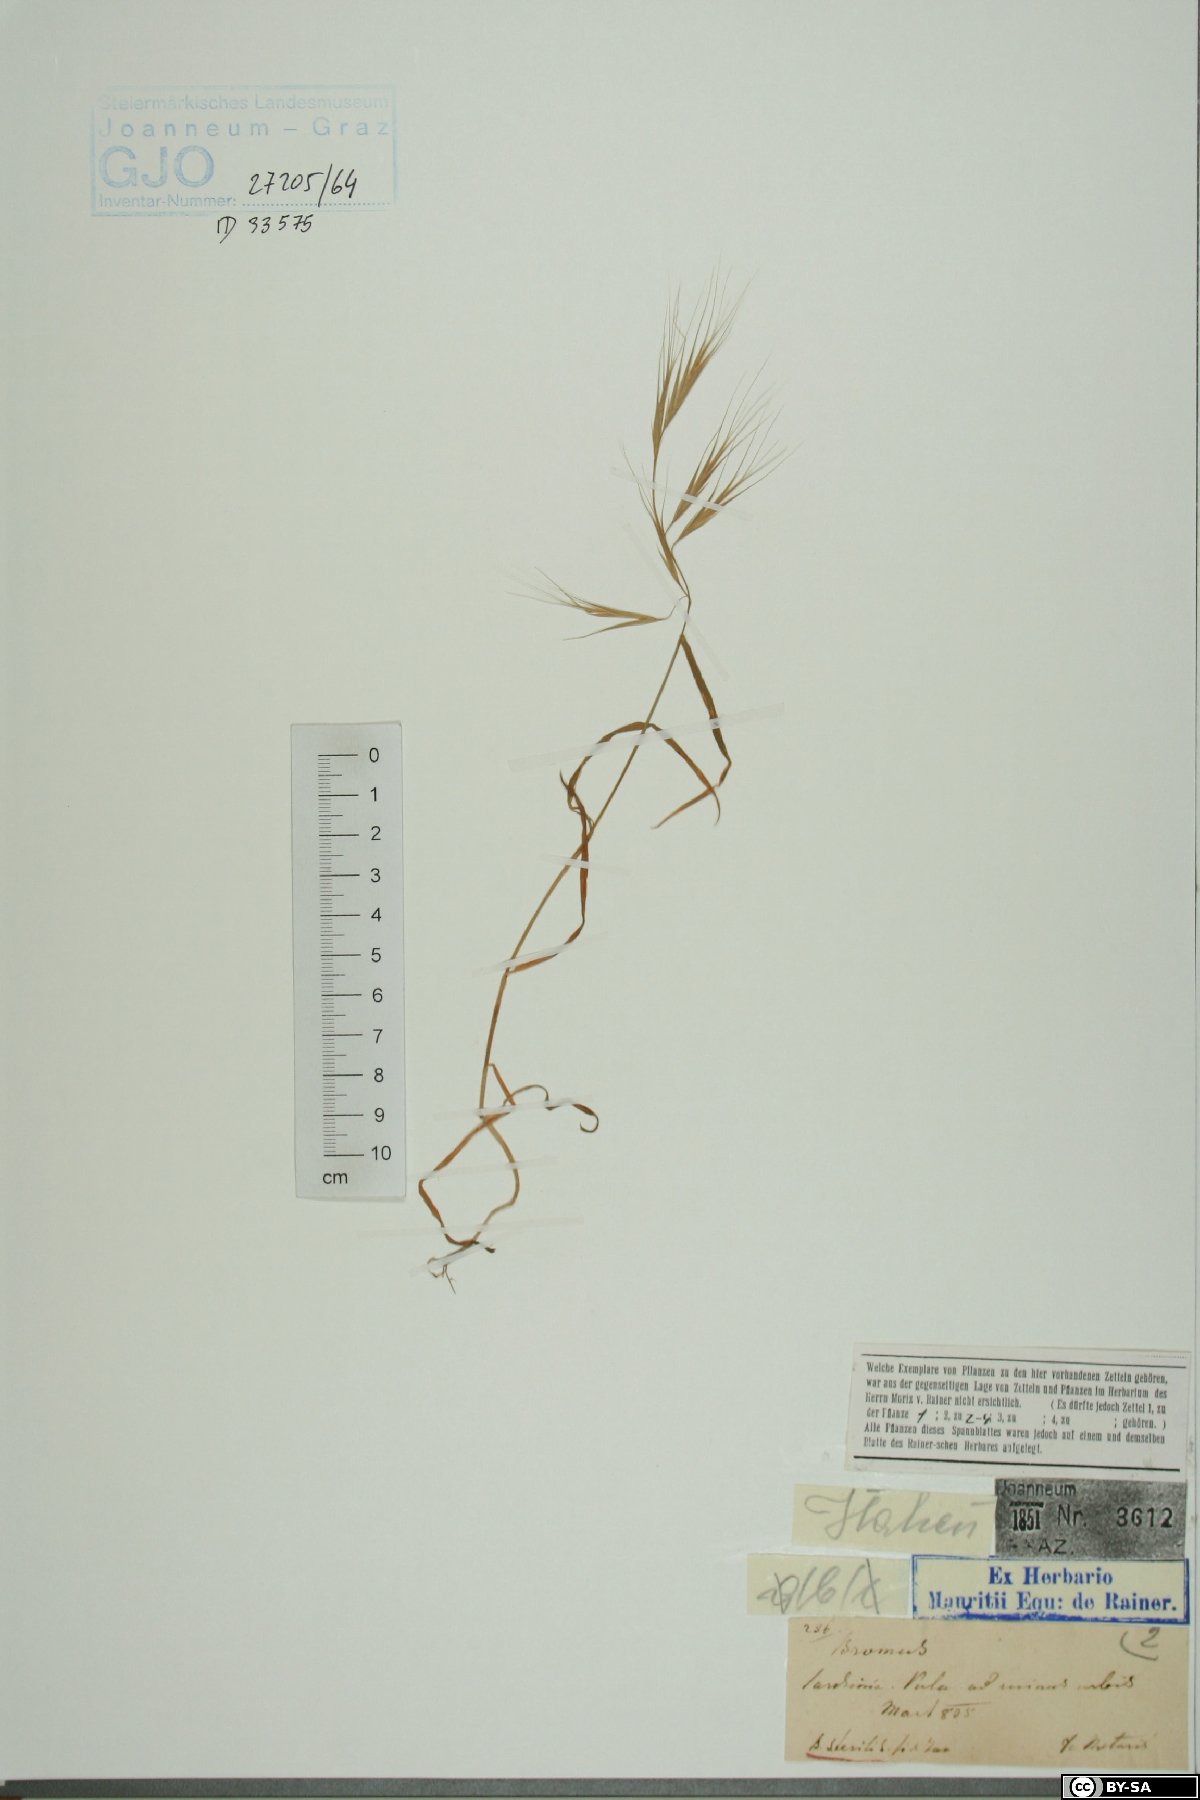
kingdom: Plantae
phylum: Tracheophyta
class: Liliopsida
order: Poales
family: Poaceae
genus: Bromus
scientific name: Bromus sterilis
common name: Poverty brome
